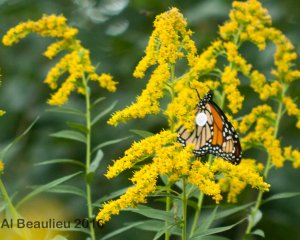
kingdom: Animalia
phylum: Arthropoda
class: Insecta
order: Lepidoptera
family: Nymphalidae
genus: Danaus
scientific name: Danaus plexippus
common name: Monarch
